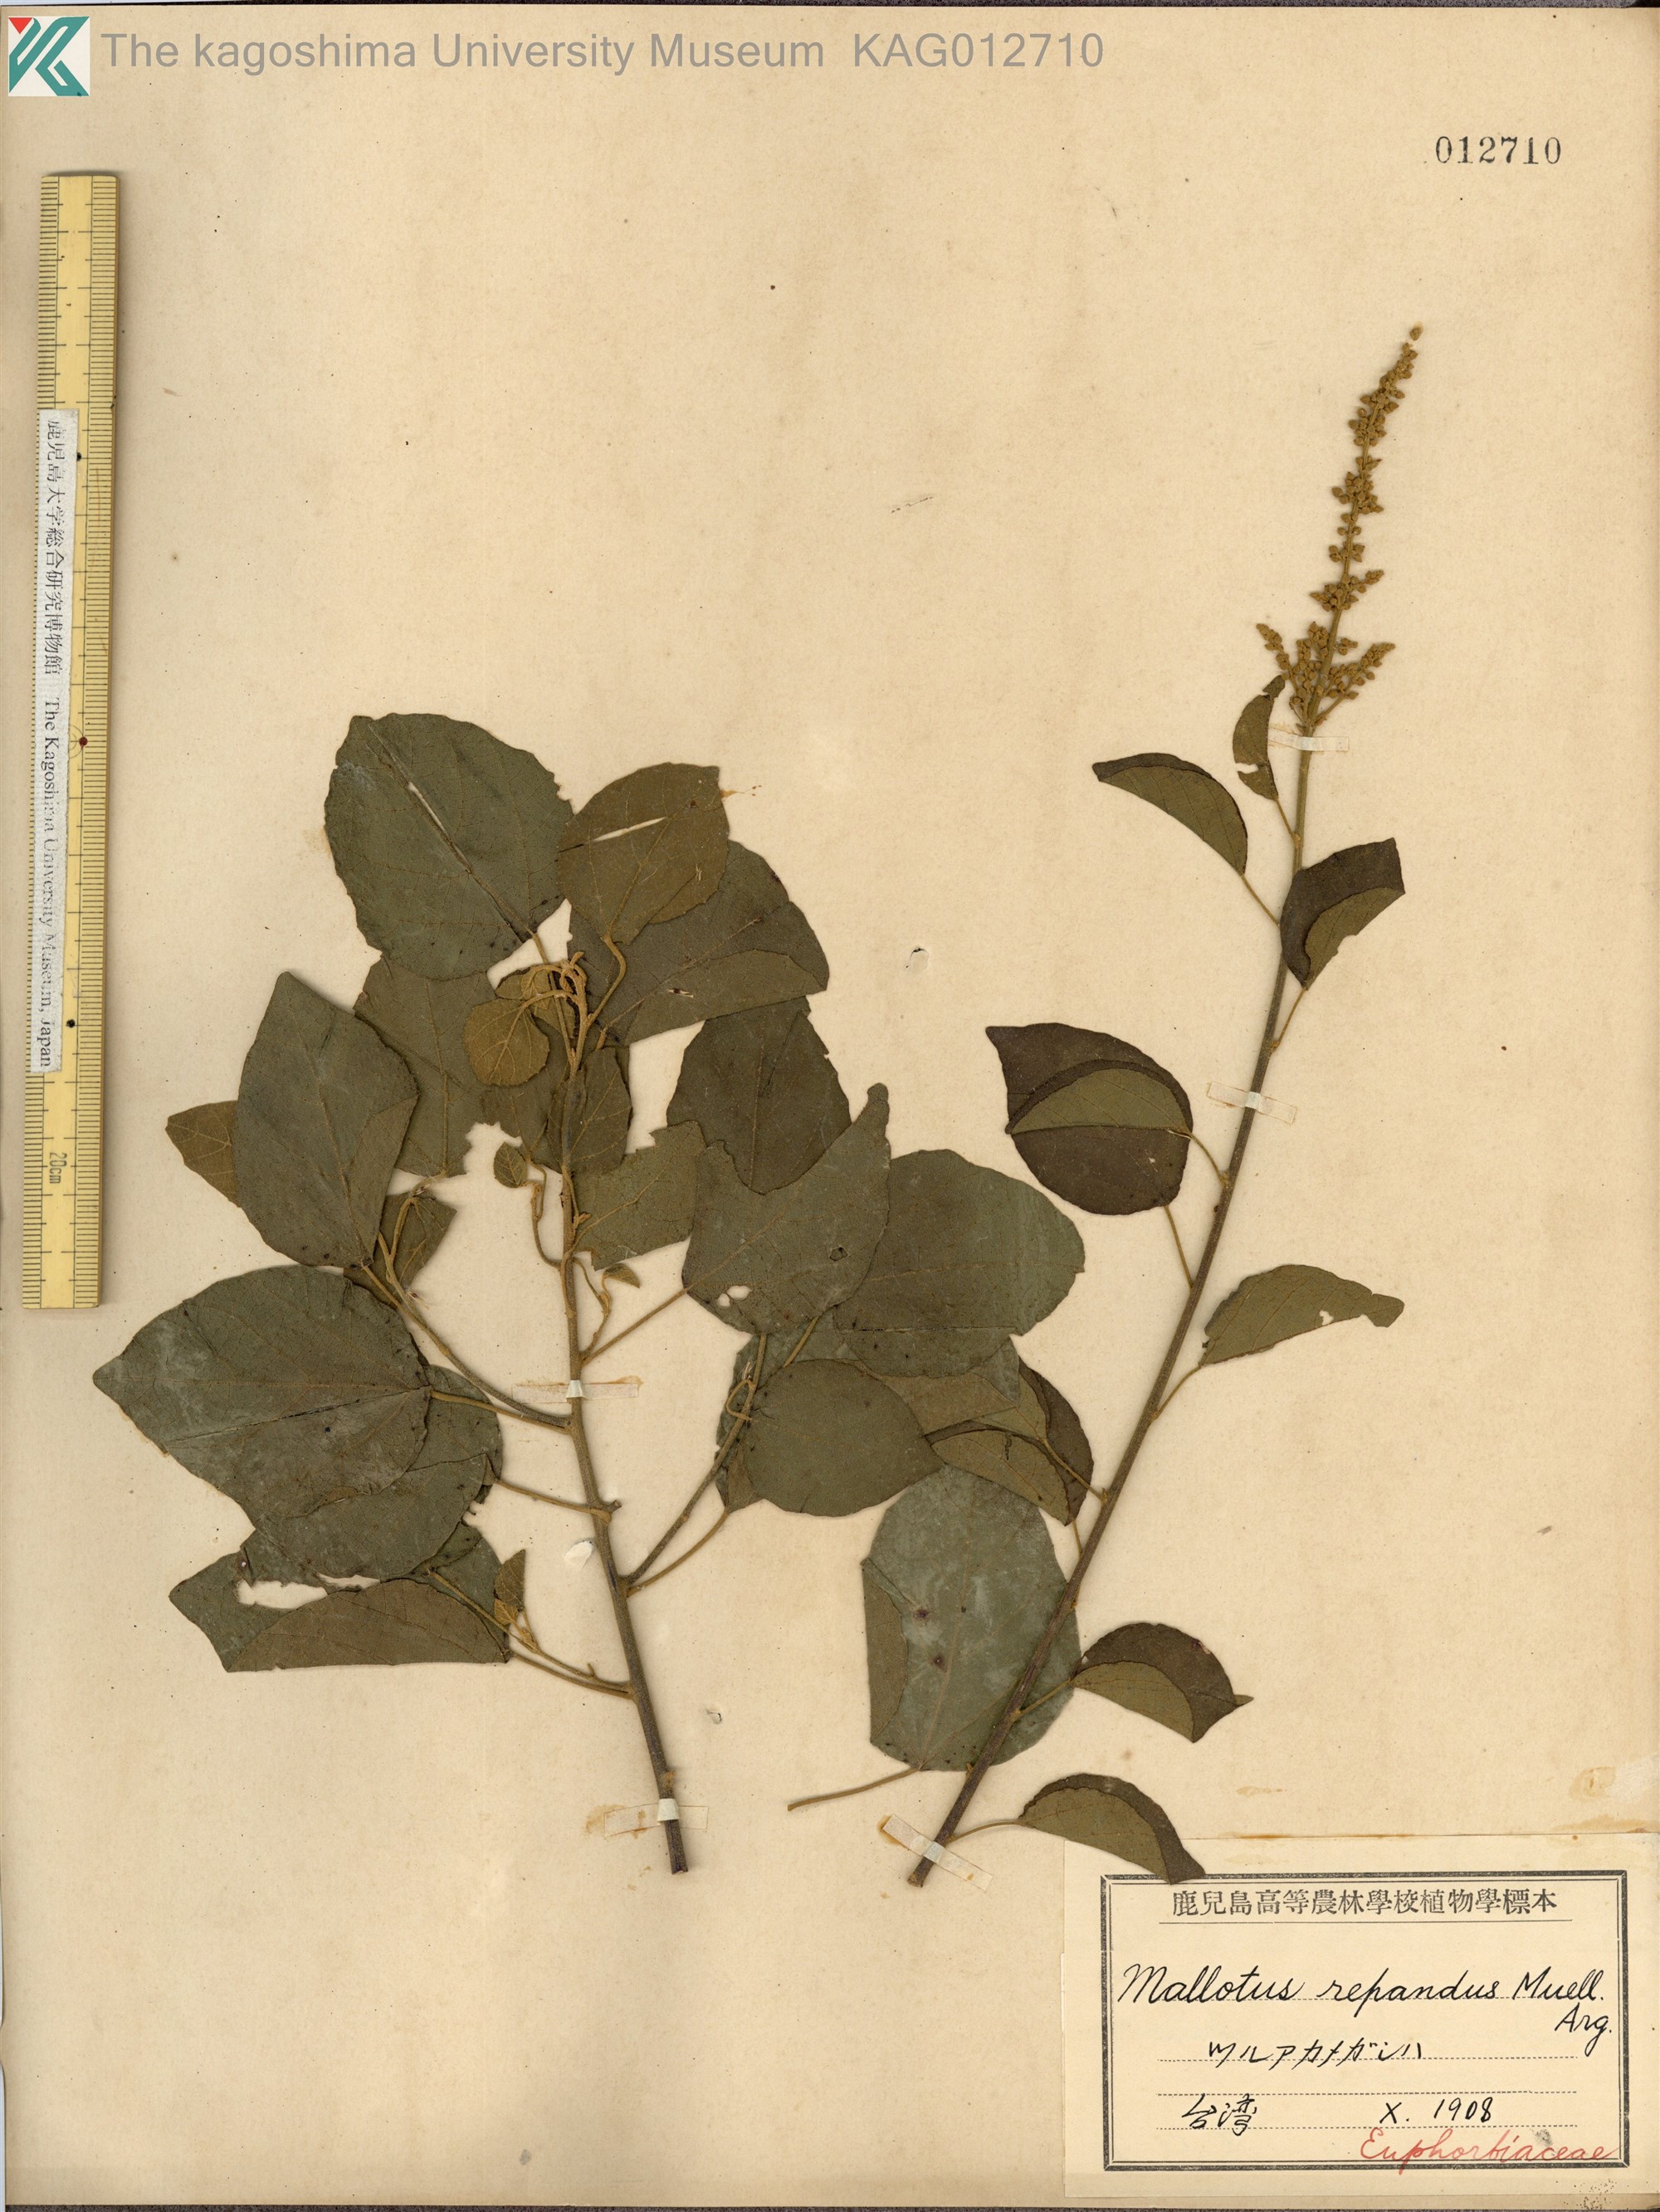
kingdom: Plantae
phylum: Tracheophyta
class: Magnoliopsida
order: Malpighiales
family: Euphorbiaceae
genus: Mallotus
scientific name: Mallotus repandus
